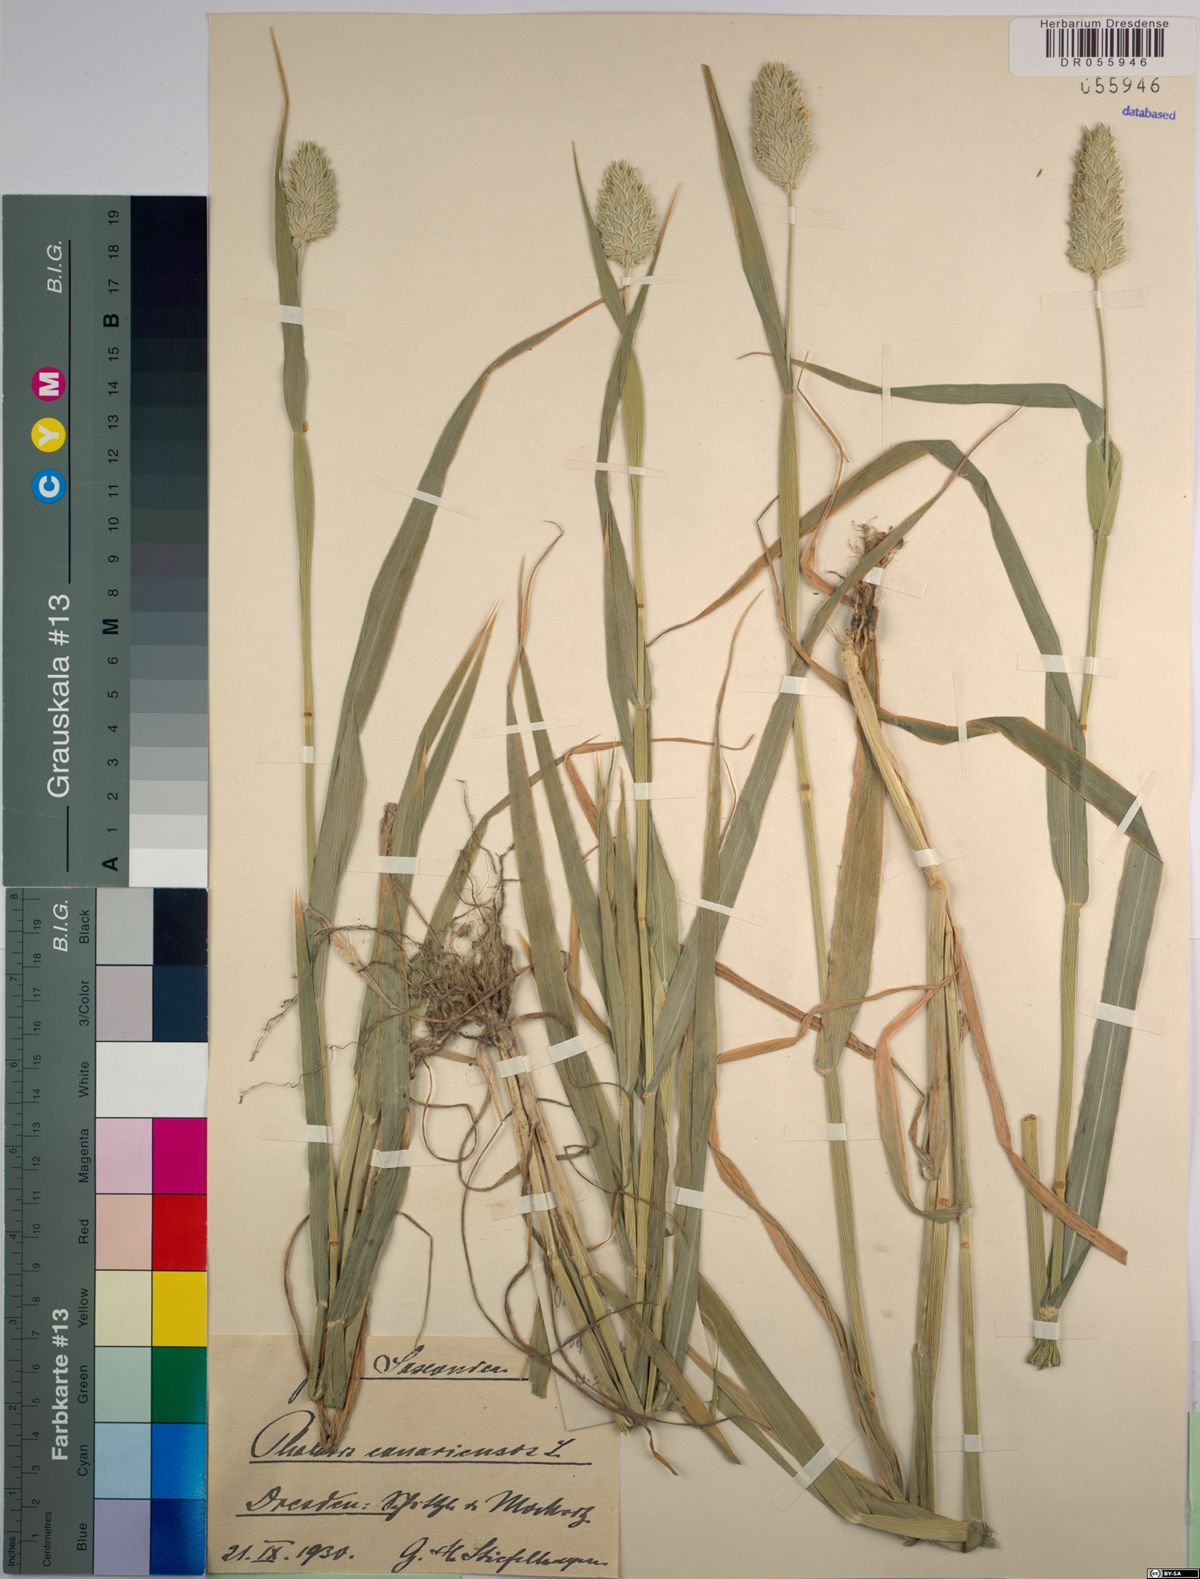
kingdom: Plantae
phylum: Tracheophyta
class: Liliopsida
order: Poales
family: Poaceae
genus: Phalaris
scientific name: Phalaris canariensis
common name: Annual canarygrass
